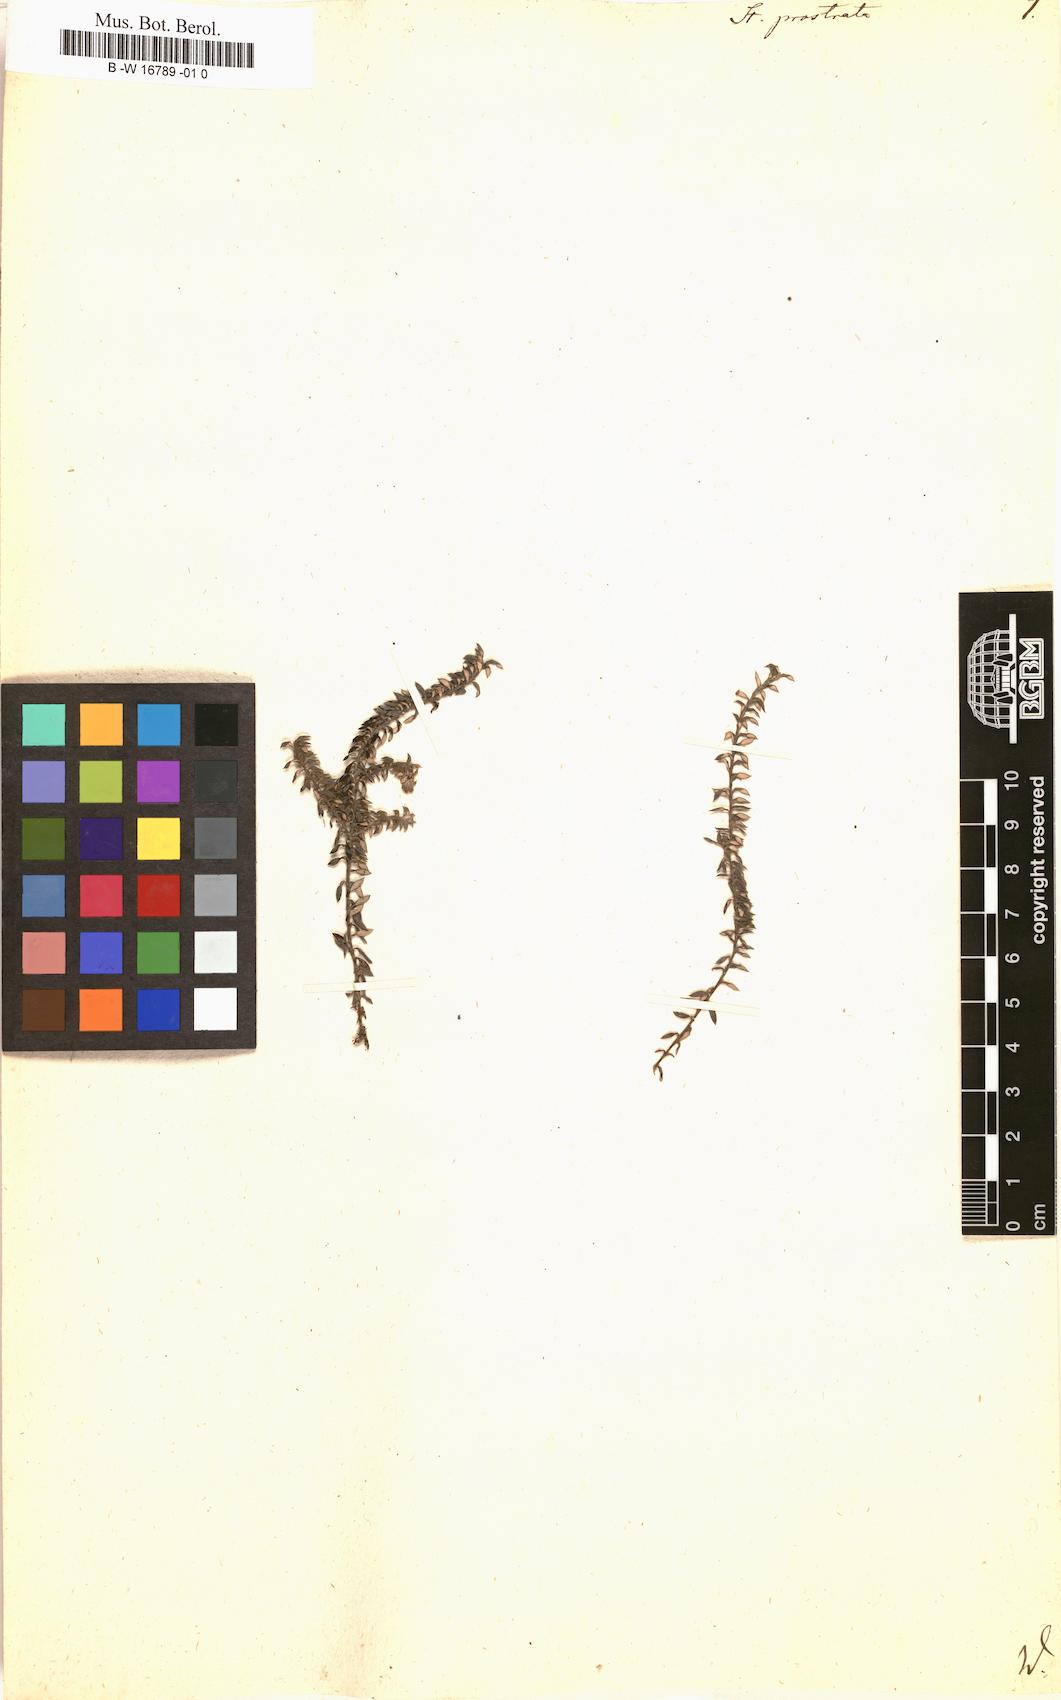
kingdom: Plantae
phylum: Tracheophyta
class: Magnoliopsida
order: Asterales
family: Asteraceae
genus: Stoebe
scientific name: Stoebe prostrata
